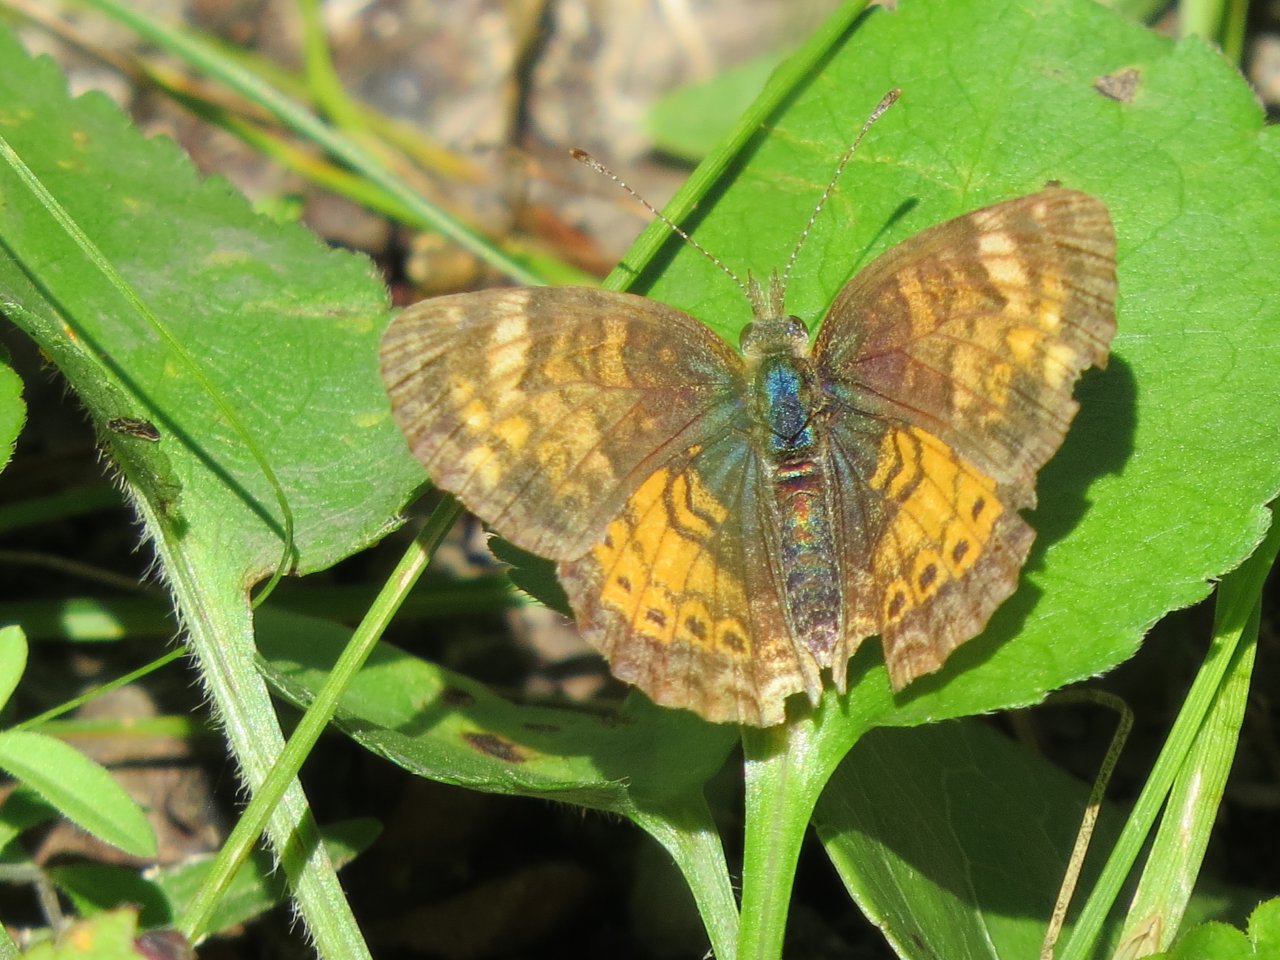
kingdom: Animalia
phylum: Arthropoda
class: Insecta
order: Lepidoptera
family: Nymphalidae
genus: Phyciodes
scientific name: Phyciodes tharos
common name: Northern Crescent
